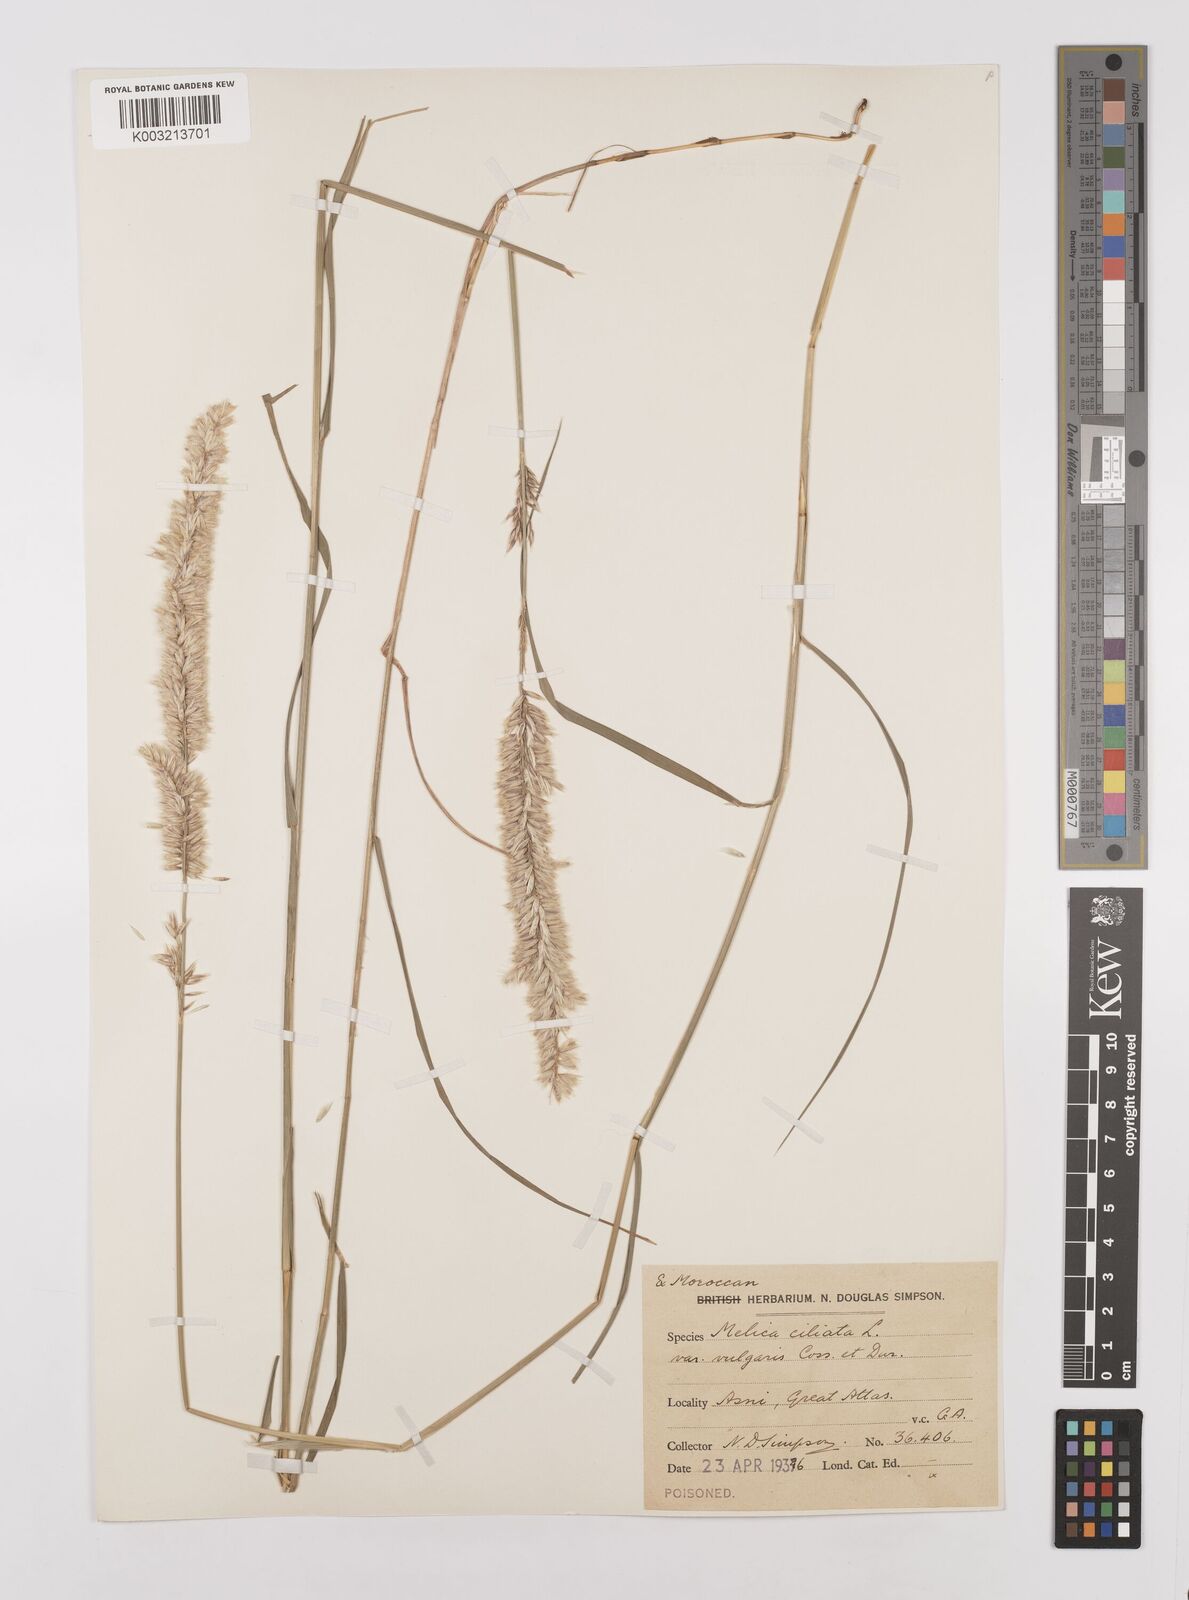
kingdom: Plantae
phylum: Tracheophyta
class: Liliopsida
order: Poales
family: Poaceae
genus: Melica
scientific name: Melica ciliata
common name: Hairy melicgrass
